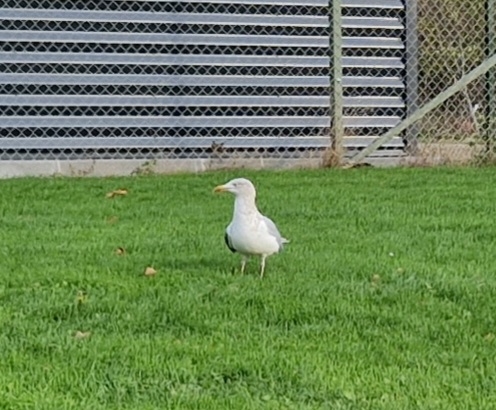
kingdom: Animalia
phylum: Chordata
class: Aves
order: Charadriiformes
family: Laridae
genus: Larus
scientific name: Larus argentatus
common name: Sølvmåge
